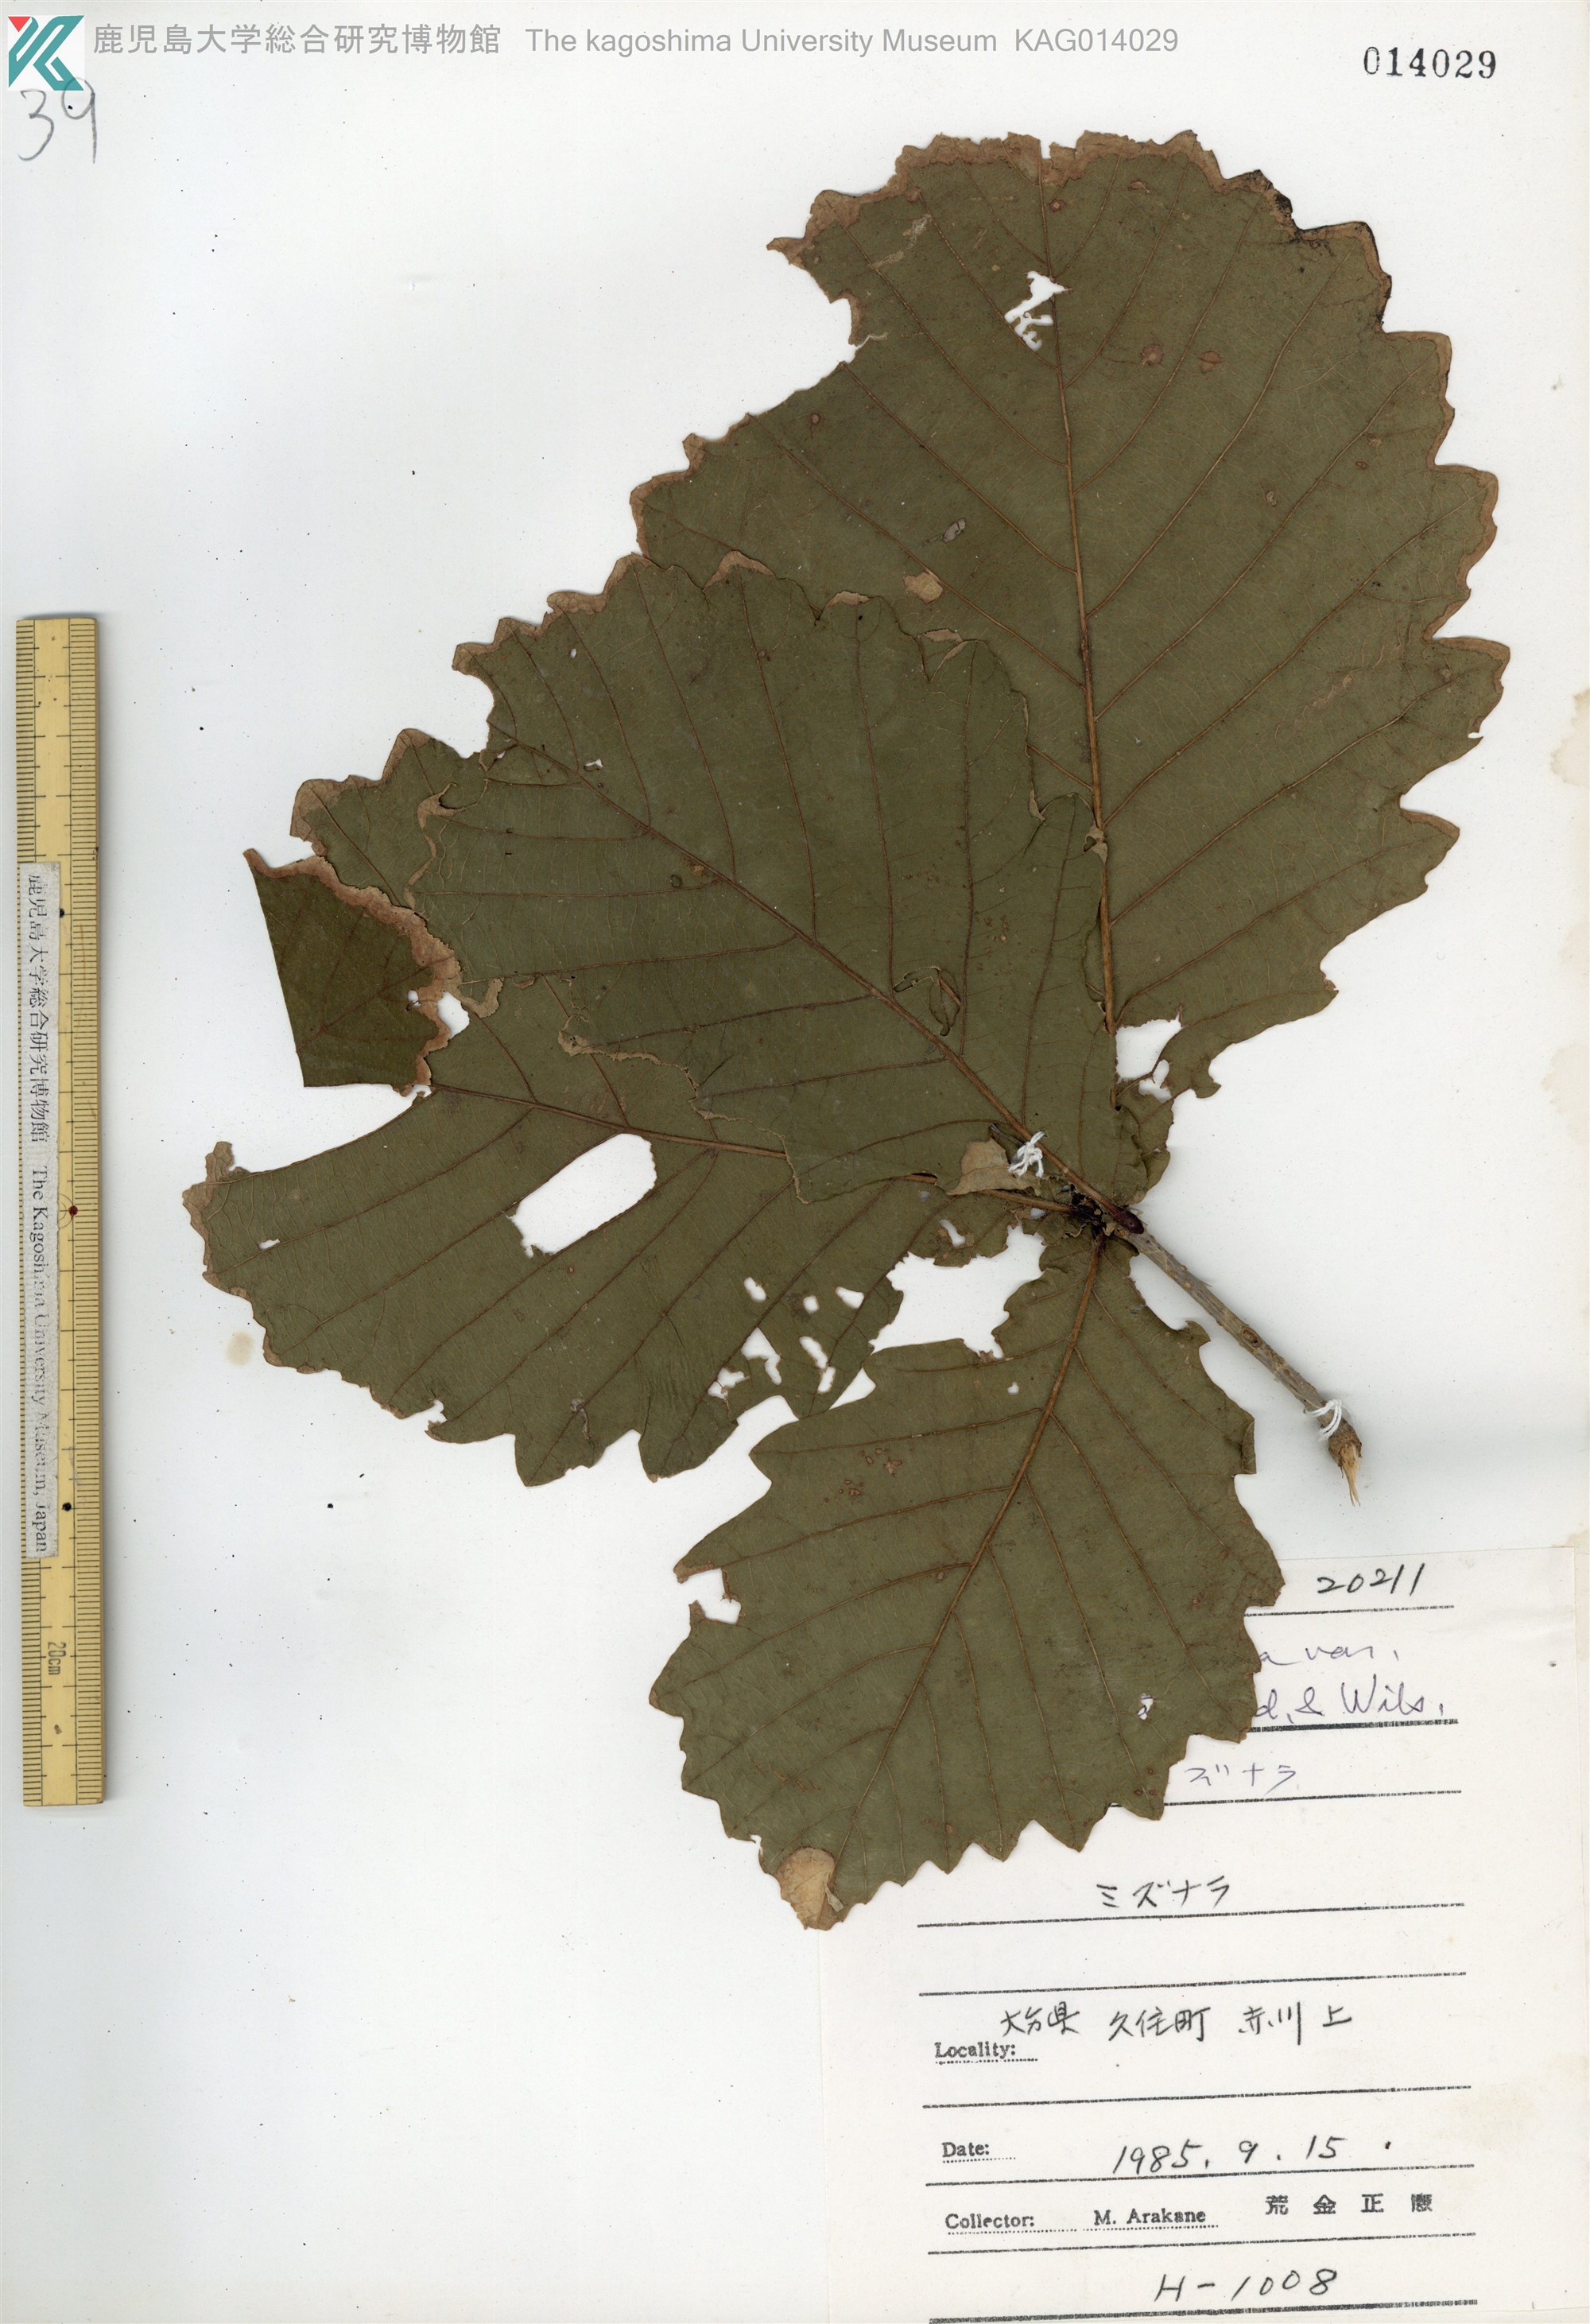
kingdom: Plantae
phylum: Tracheophyta
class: Magnoliopsida
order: Fagales
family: Fagaceae
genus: Quercus
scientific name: Quercus crispula
